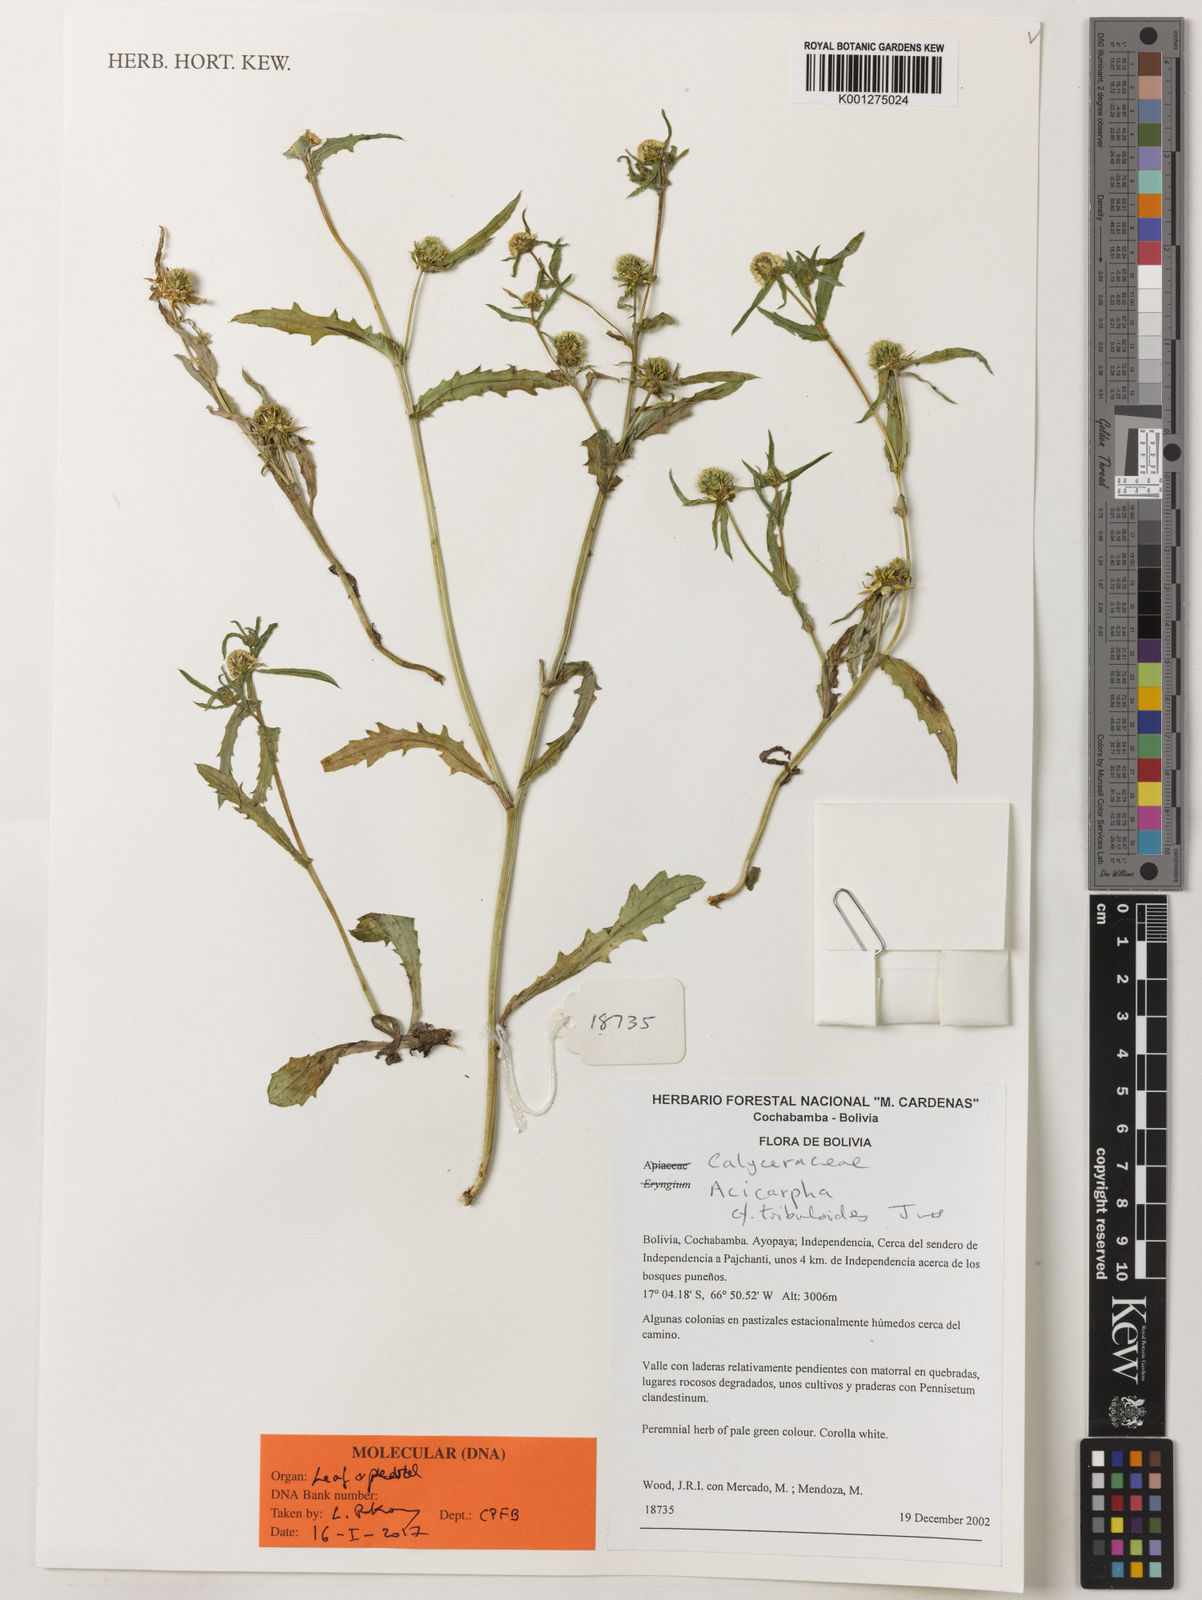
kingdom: Plantae
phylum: Tracheophyta
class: Magnoliopsida
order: Asterales
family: Calyceraceae
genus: Acicarpha
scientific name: Acicarpha tribuloides
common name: Madam gorgon
